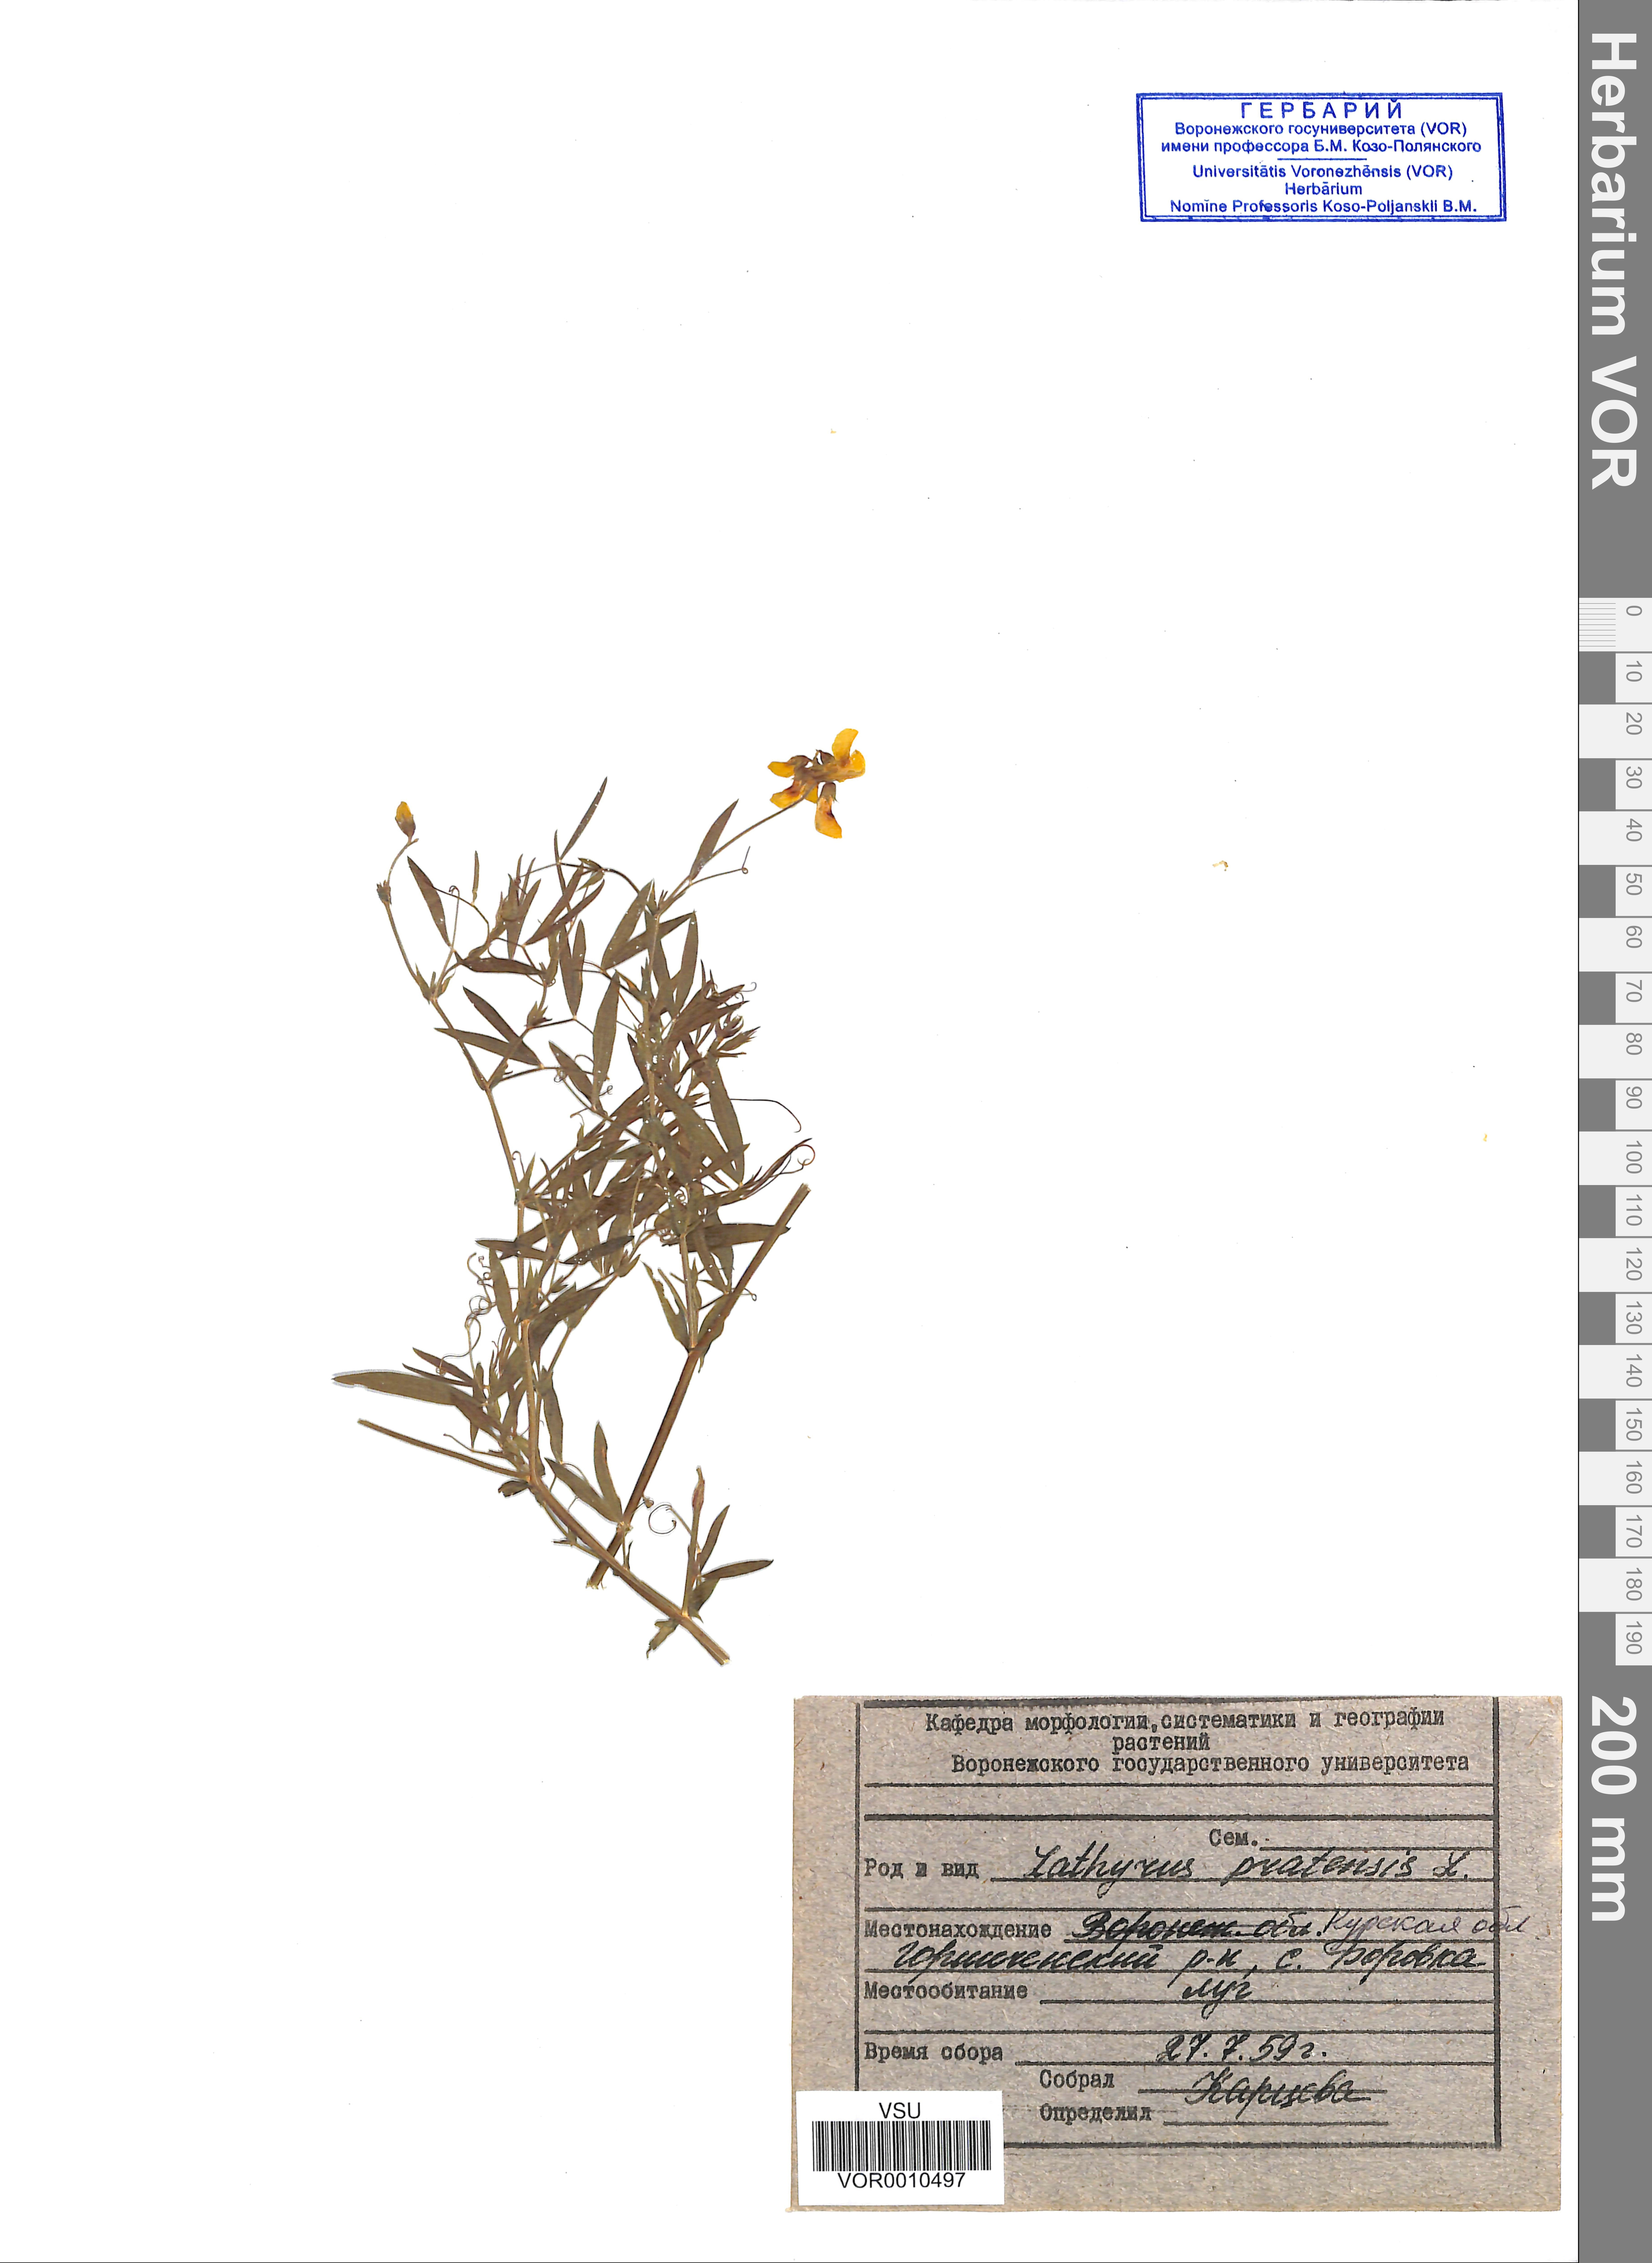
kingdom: Plantae
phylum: Tracheophyta
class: Magnoliopsida
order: Fabales
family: Fabaceae
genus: Lathyrus
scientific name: Lathyrus palustris
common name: Marsh pea
